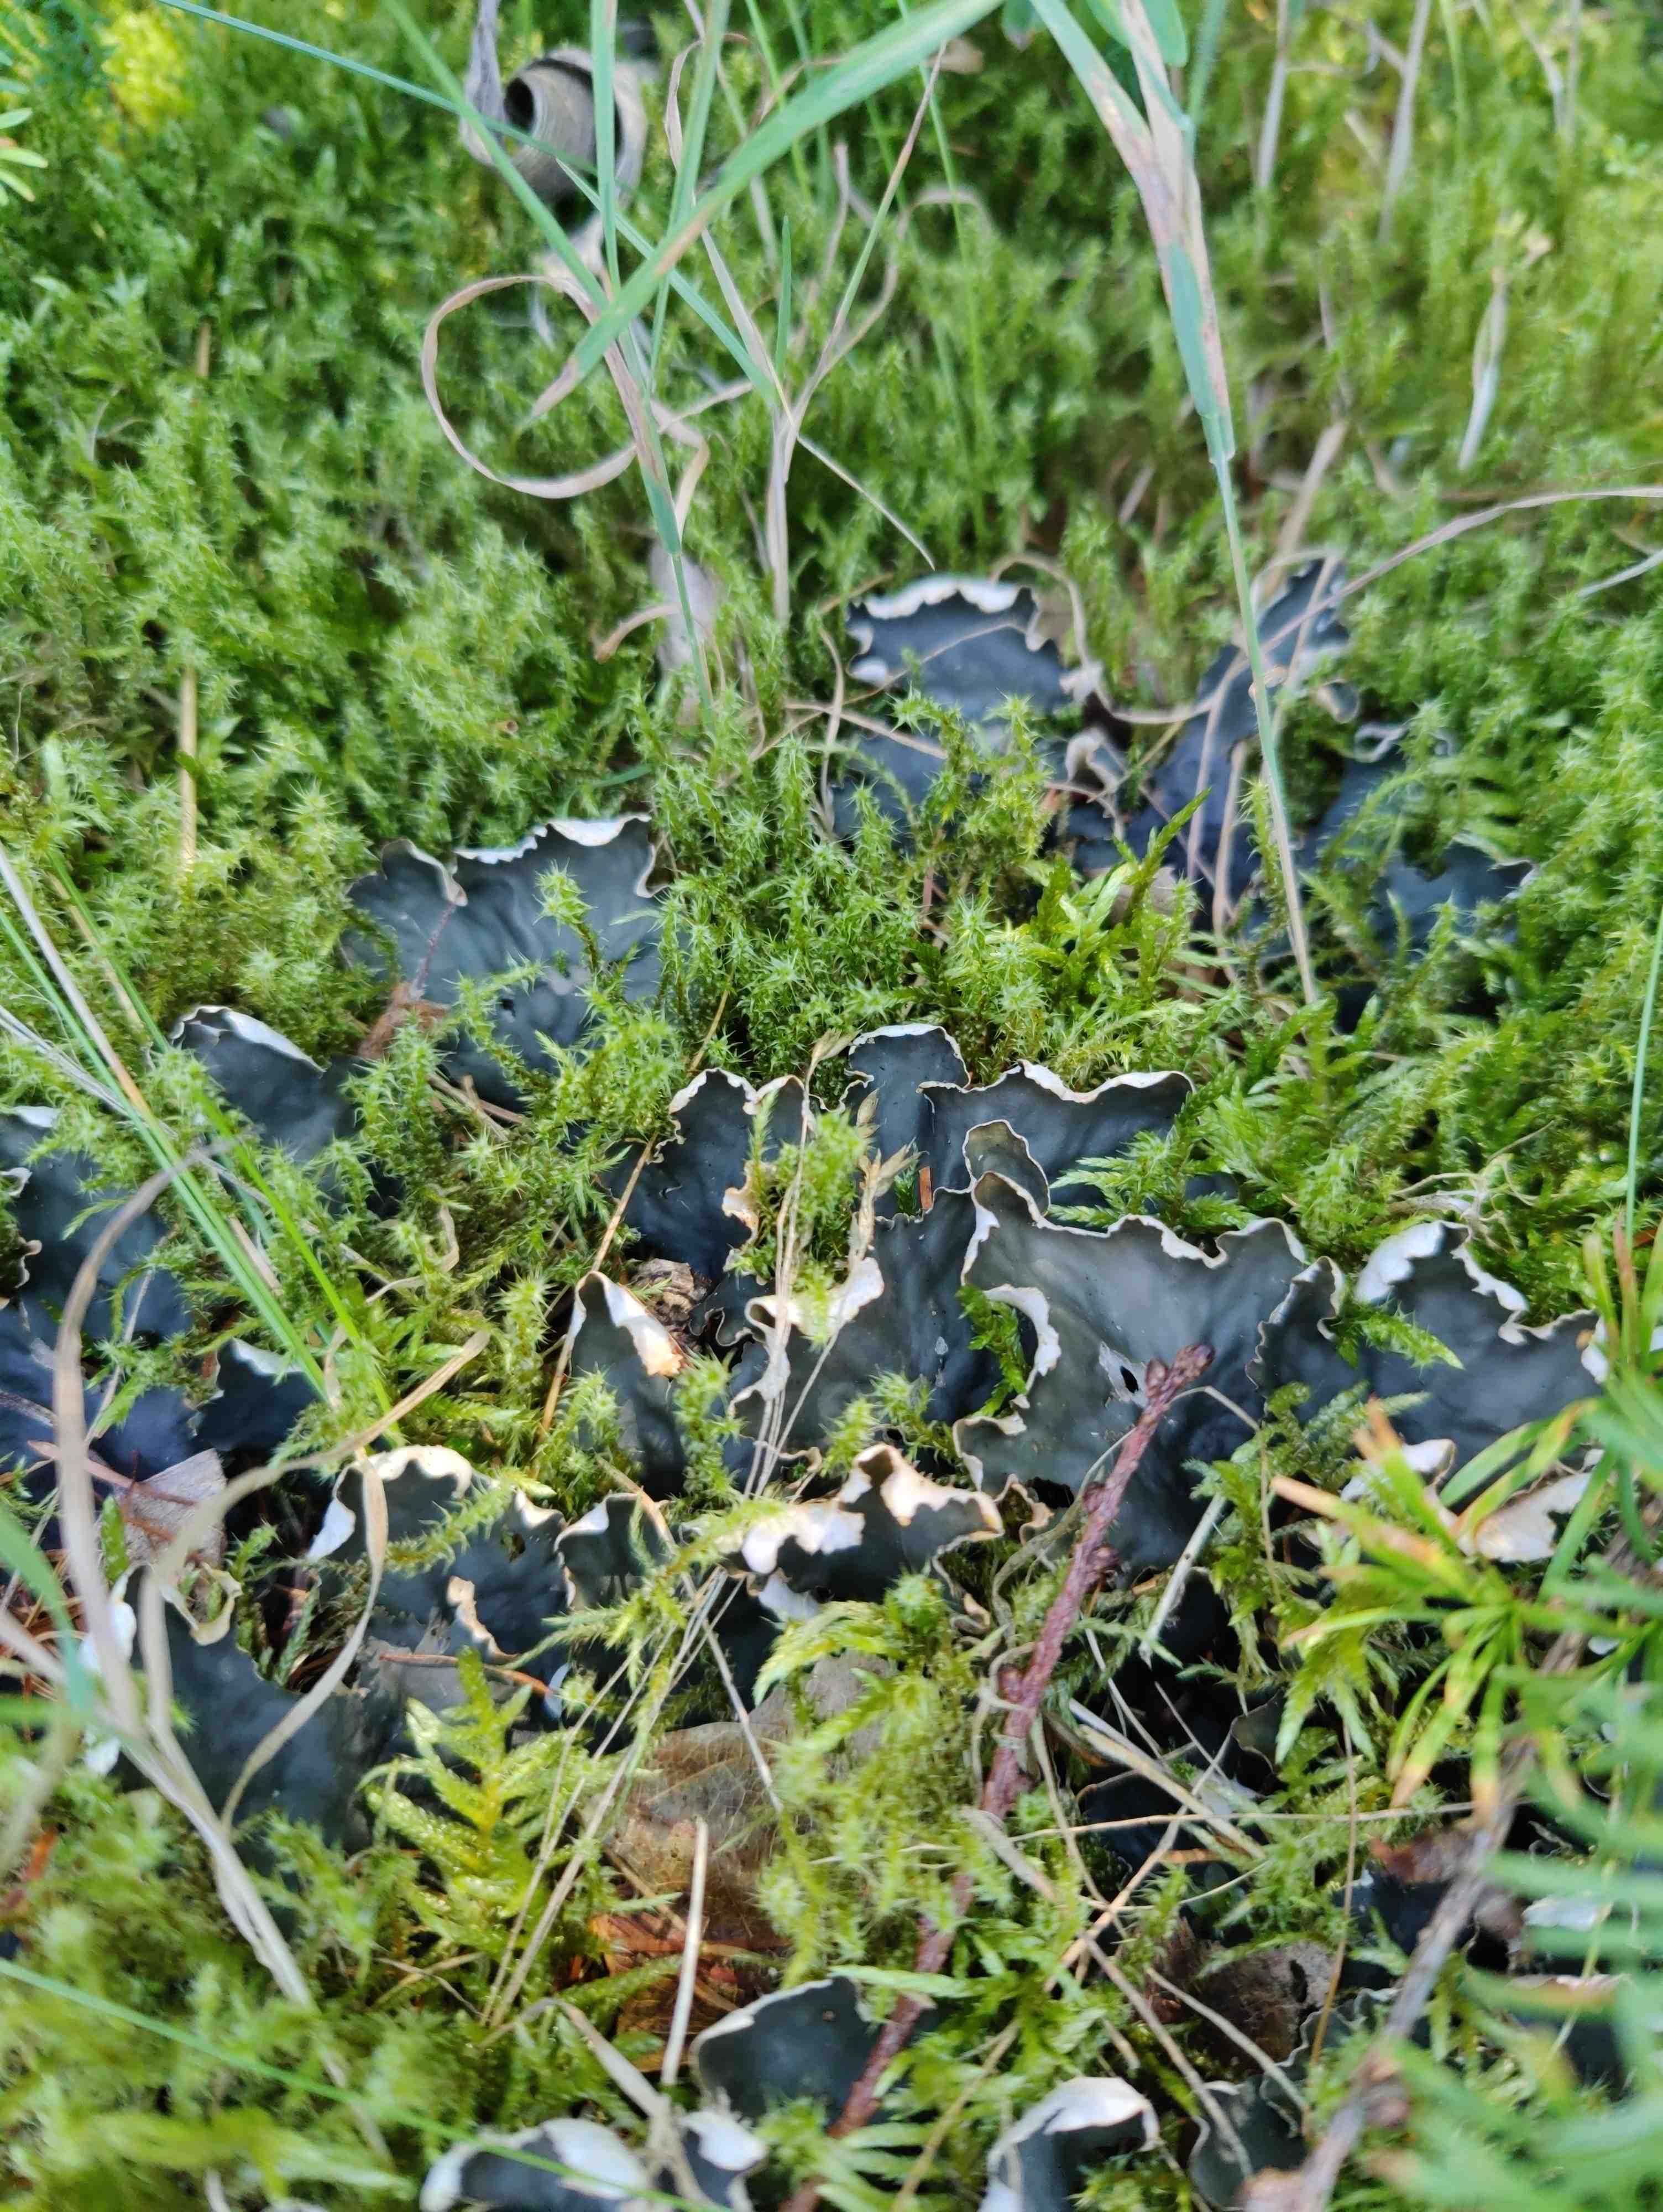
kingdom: Fungi
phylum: Ascomycota
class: Lecanoromycetes
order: Peltigerales
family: Peltigeraceae
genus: Peltigera
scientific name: Peltigera hymenina
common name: hinde-skjoldlav
